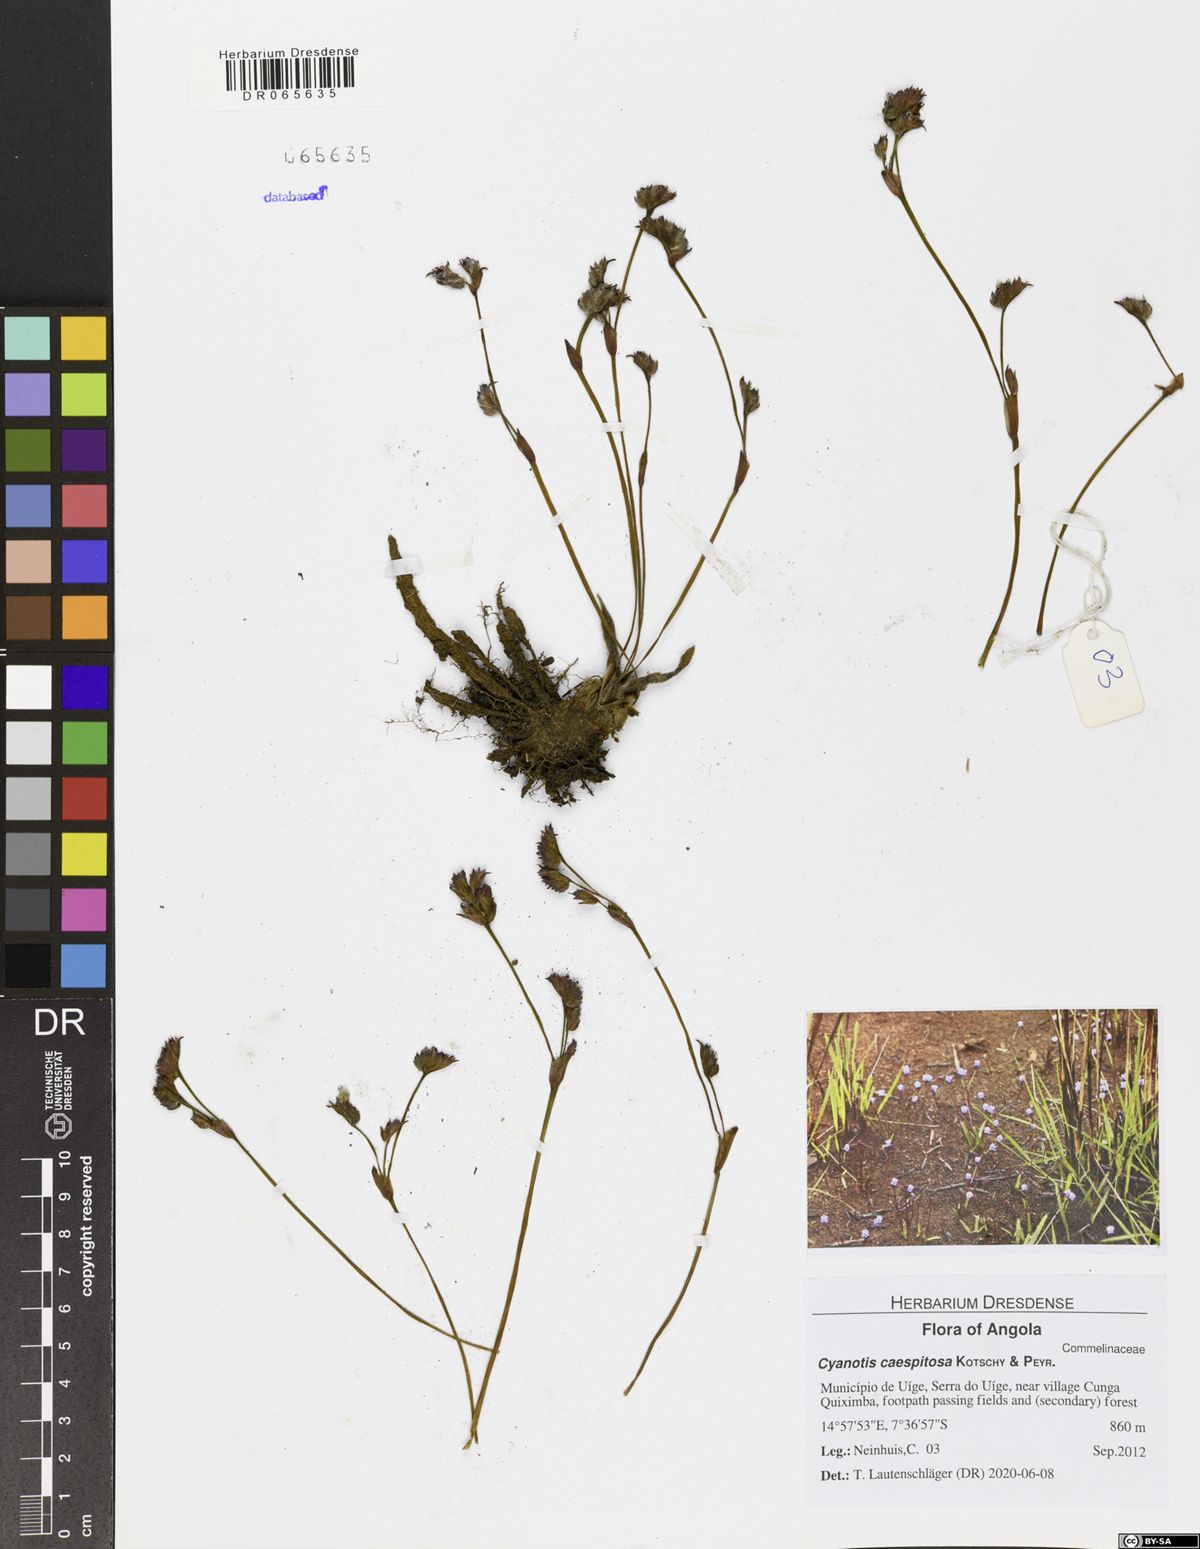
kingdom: Plantae
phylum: Tracheophyta
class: Liliopsida
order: Commelinales
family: Commelinaceae
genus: Cyanotis
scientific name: Cyanotis caespitosa
